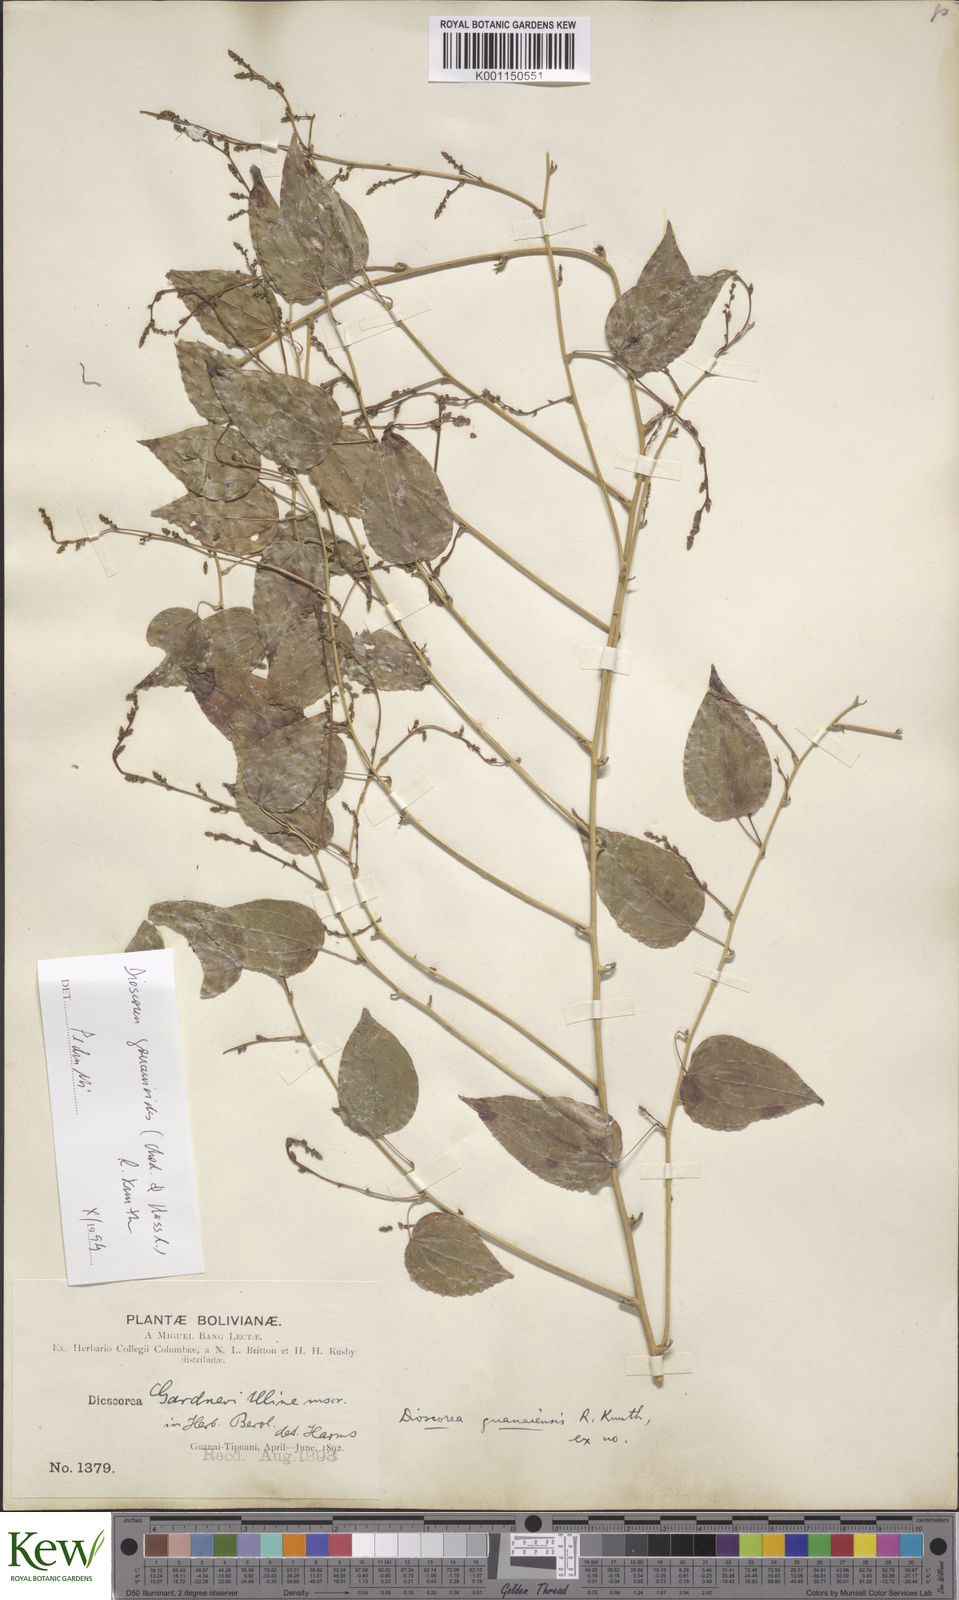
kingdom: Plantae
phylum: Tracheophyta
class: Liliopsida
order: Dioscoreales
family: Dioscoreaceae
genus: Dioscorea
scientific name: Dioscorea acanthogene
